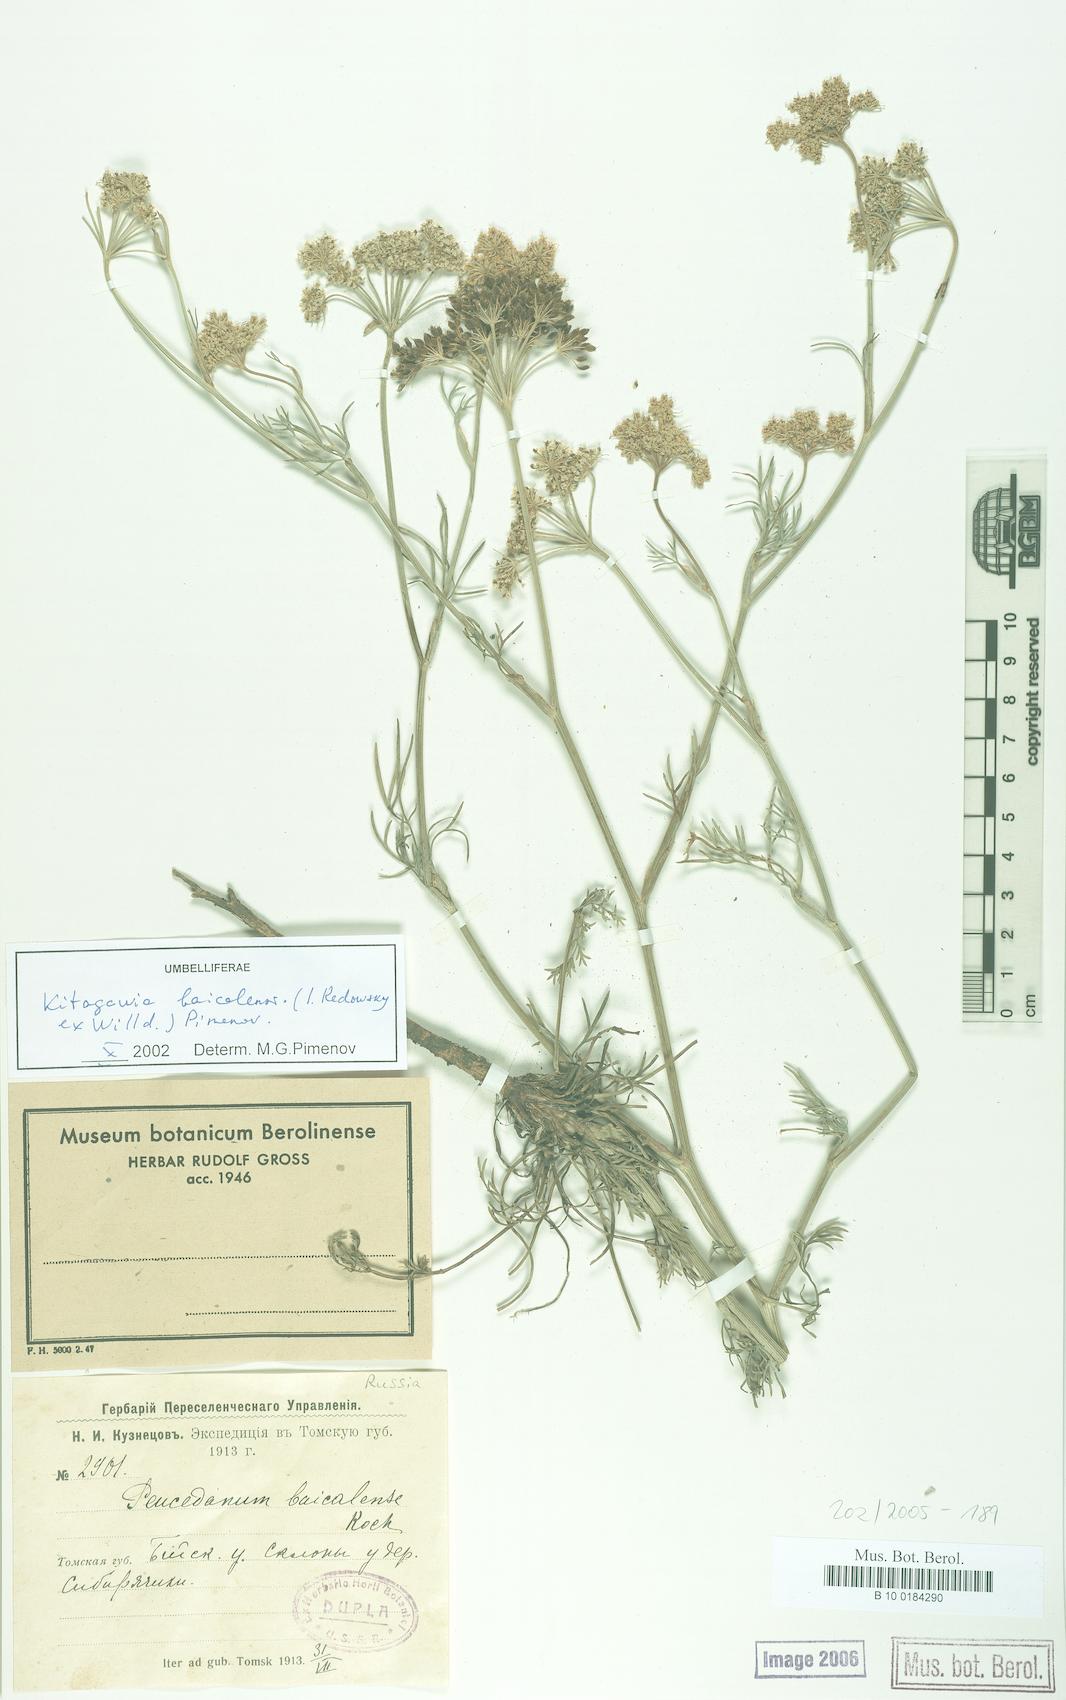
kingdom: Plantae
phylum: Tracheophyta
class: Magnoliopsida
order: Apiales
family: Apiaceae
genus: Kitagawia
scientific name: Kitagawia baicalensis
